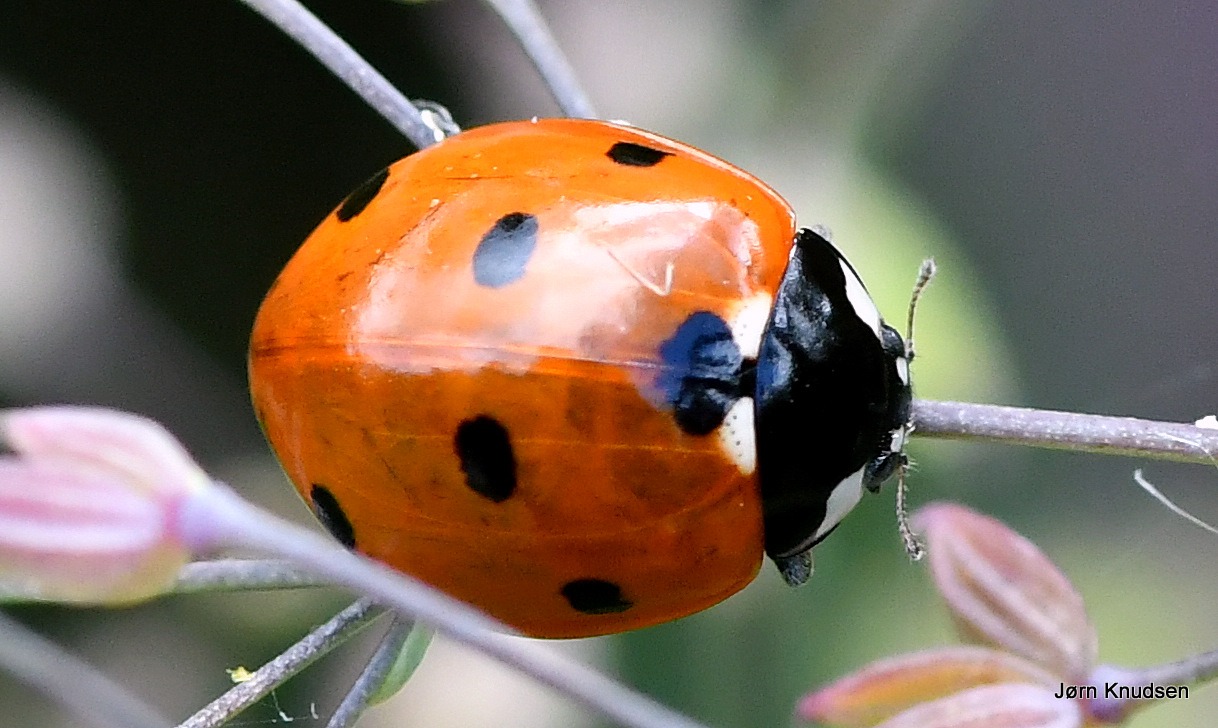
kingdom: Animalia
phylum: Arthropoda
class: Insecta
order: Coleoptera
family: Coccinellidae
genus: Coccinella
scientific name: Coccinella septempunctata
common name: Syvplettet mariehøne
